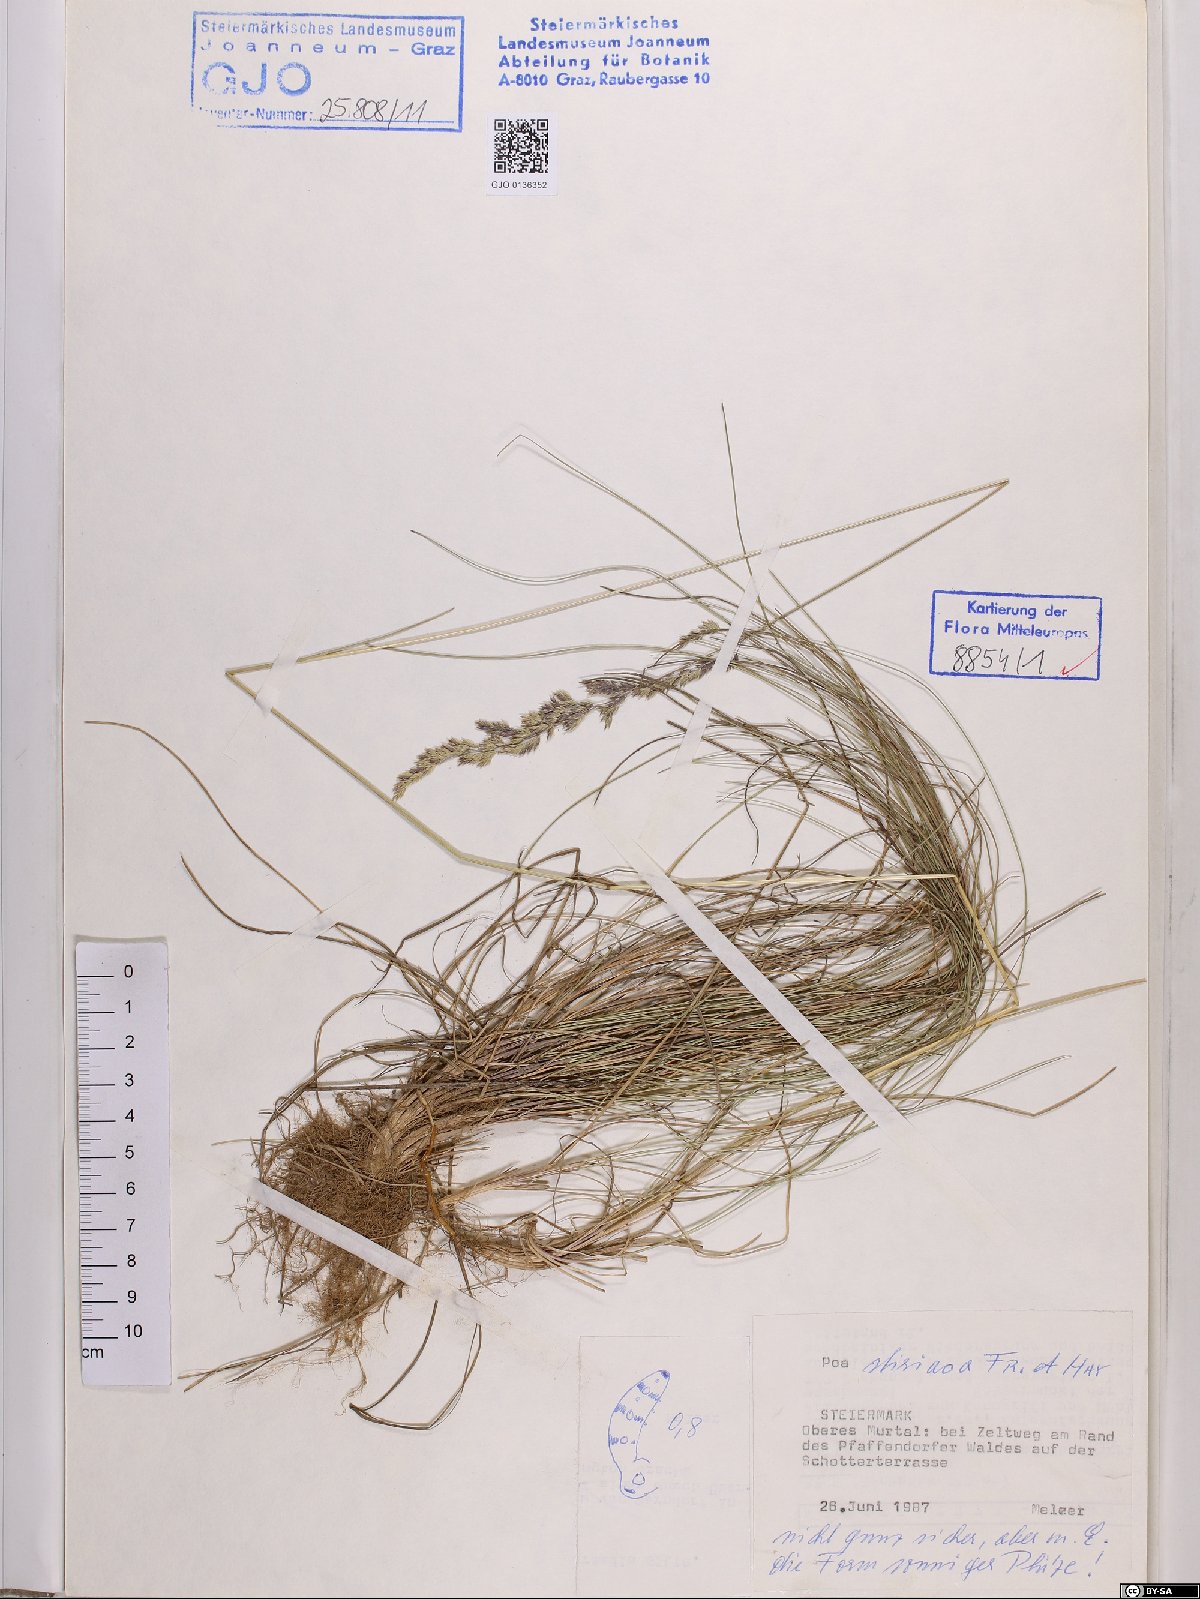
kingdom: Plantae
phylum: Tracheophyta
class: Liliopsida
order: Poales
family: Poaceae
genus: Poa
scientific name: Poa stiriaca
